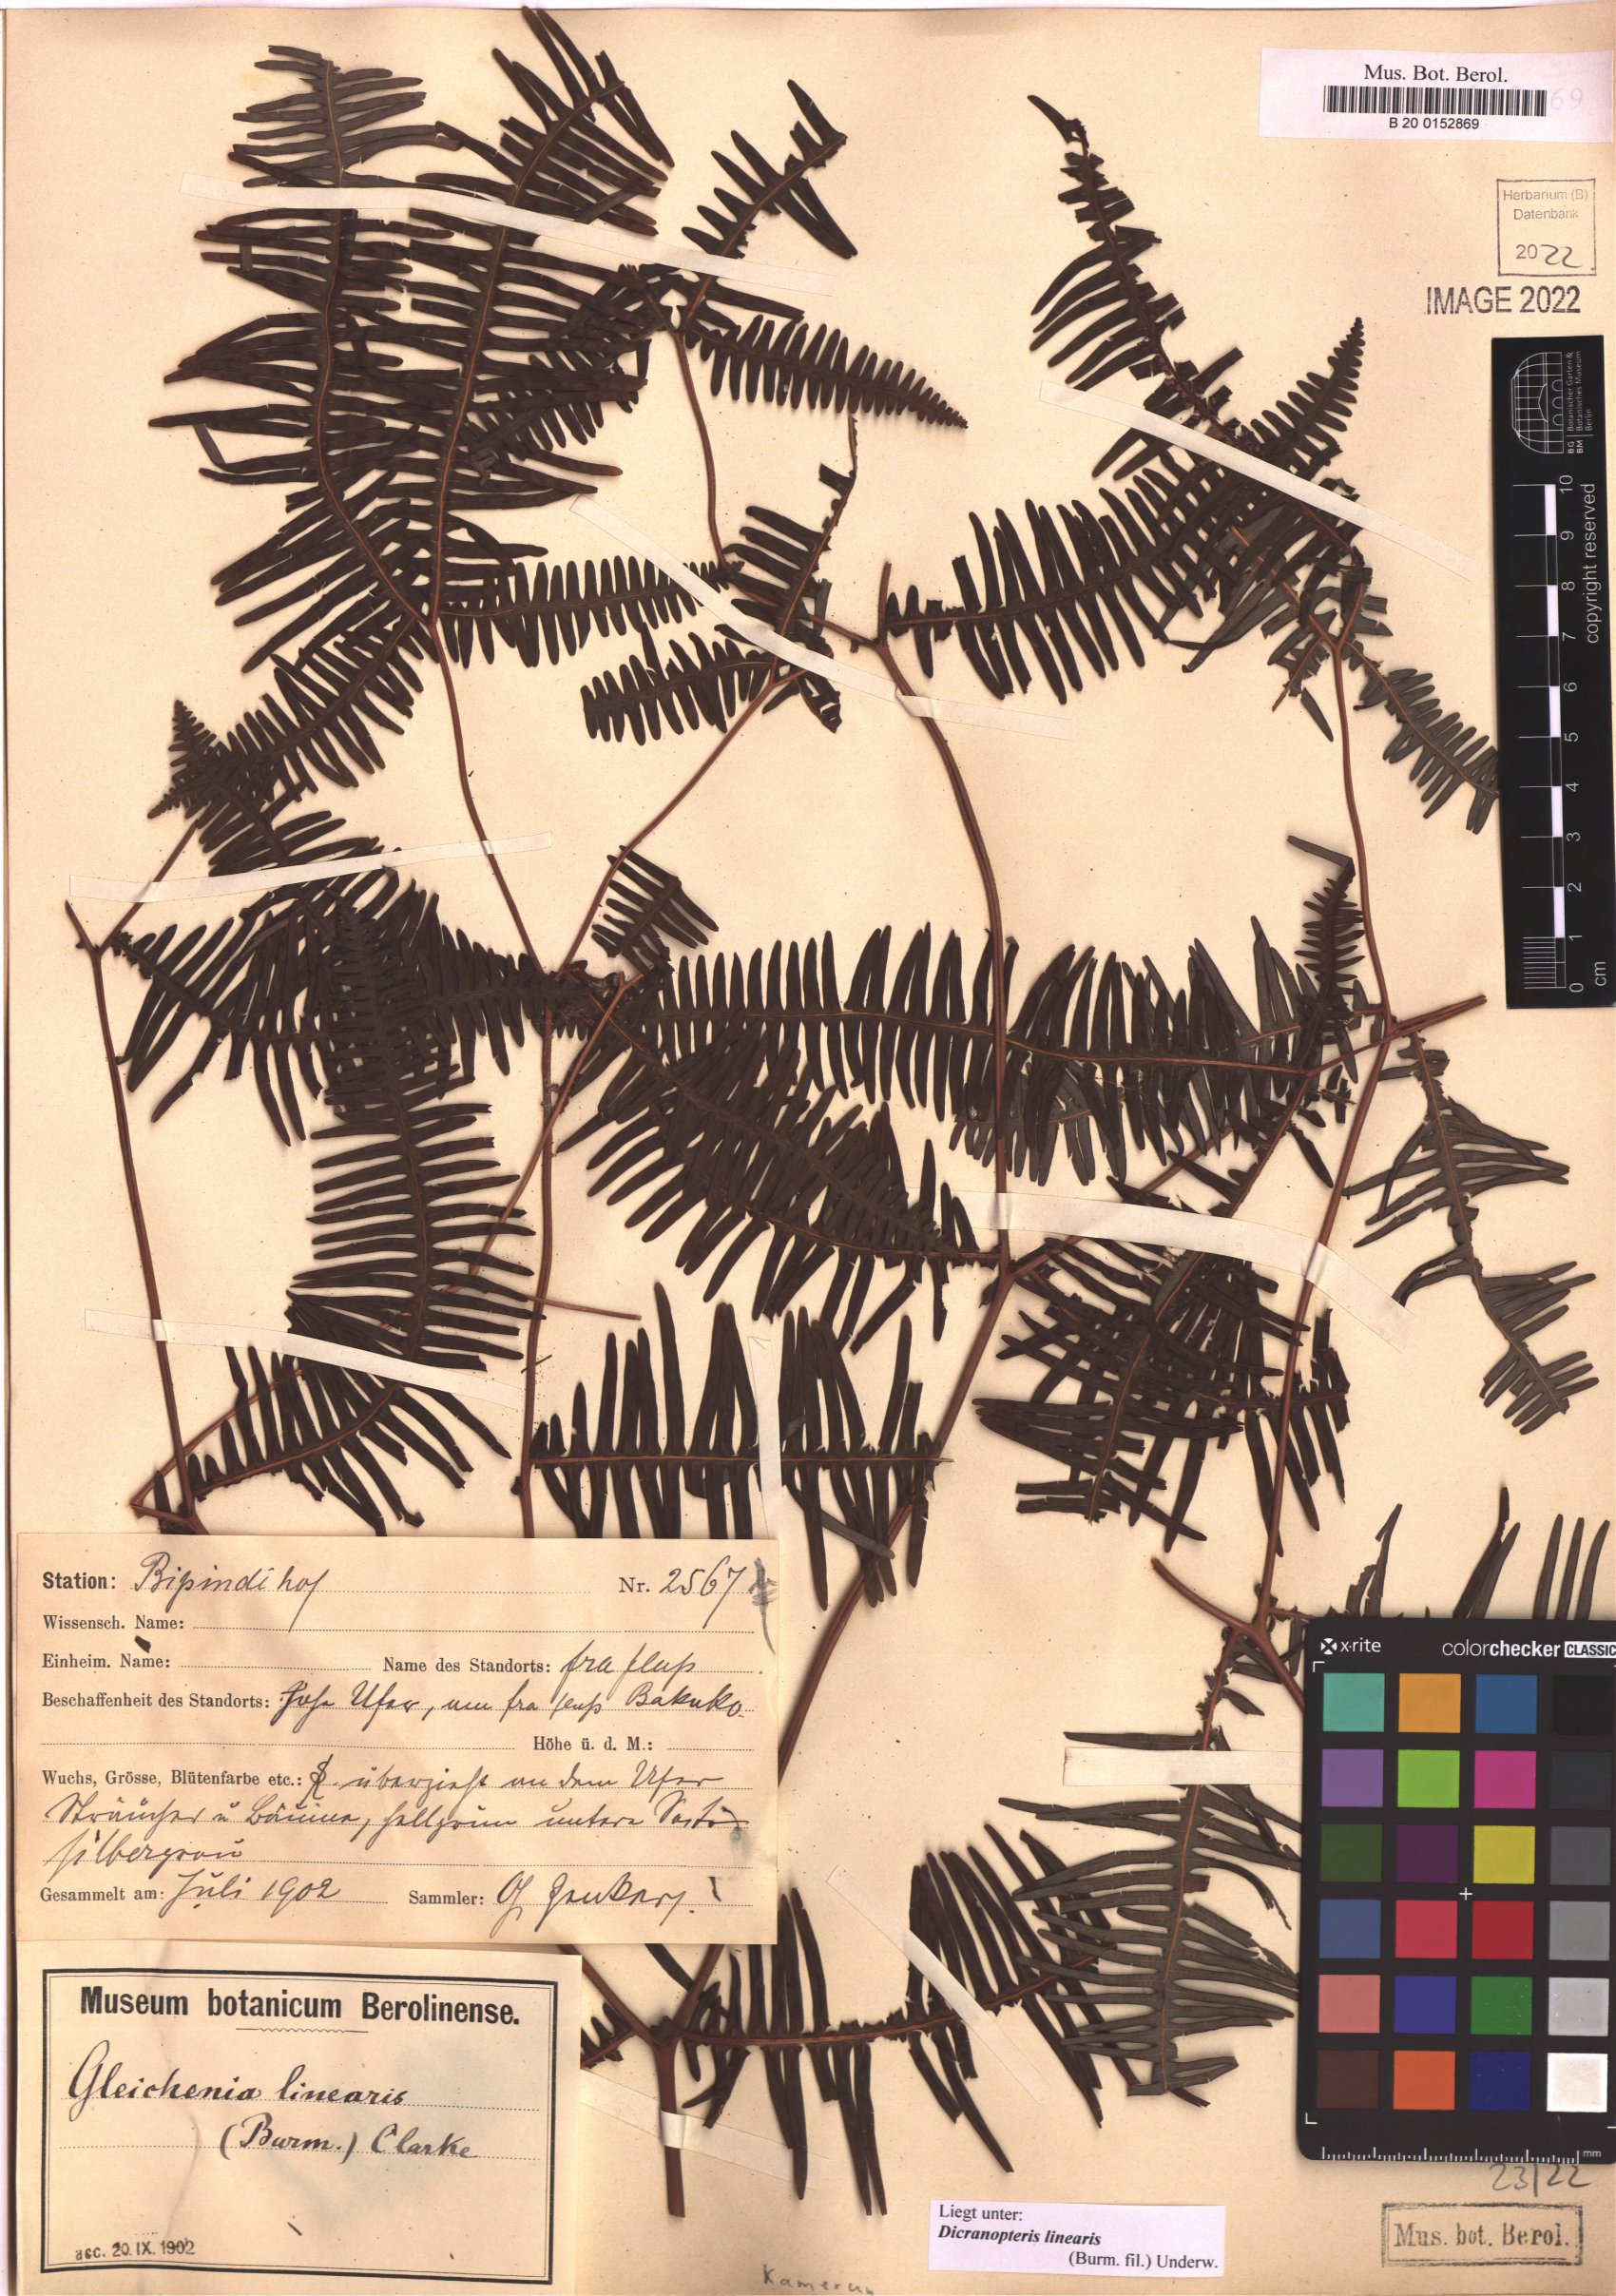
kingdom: Plantae
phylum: Tracheophyta
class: Polypodiopsida
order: Gleicheniales
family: Gleicheniaceae
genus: Dicranopteris
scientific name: Dicranopteris linearis
